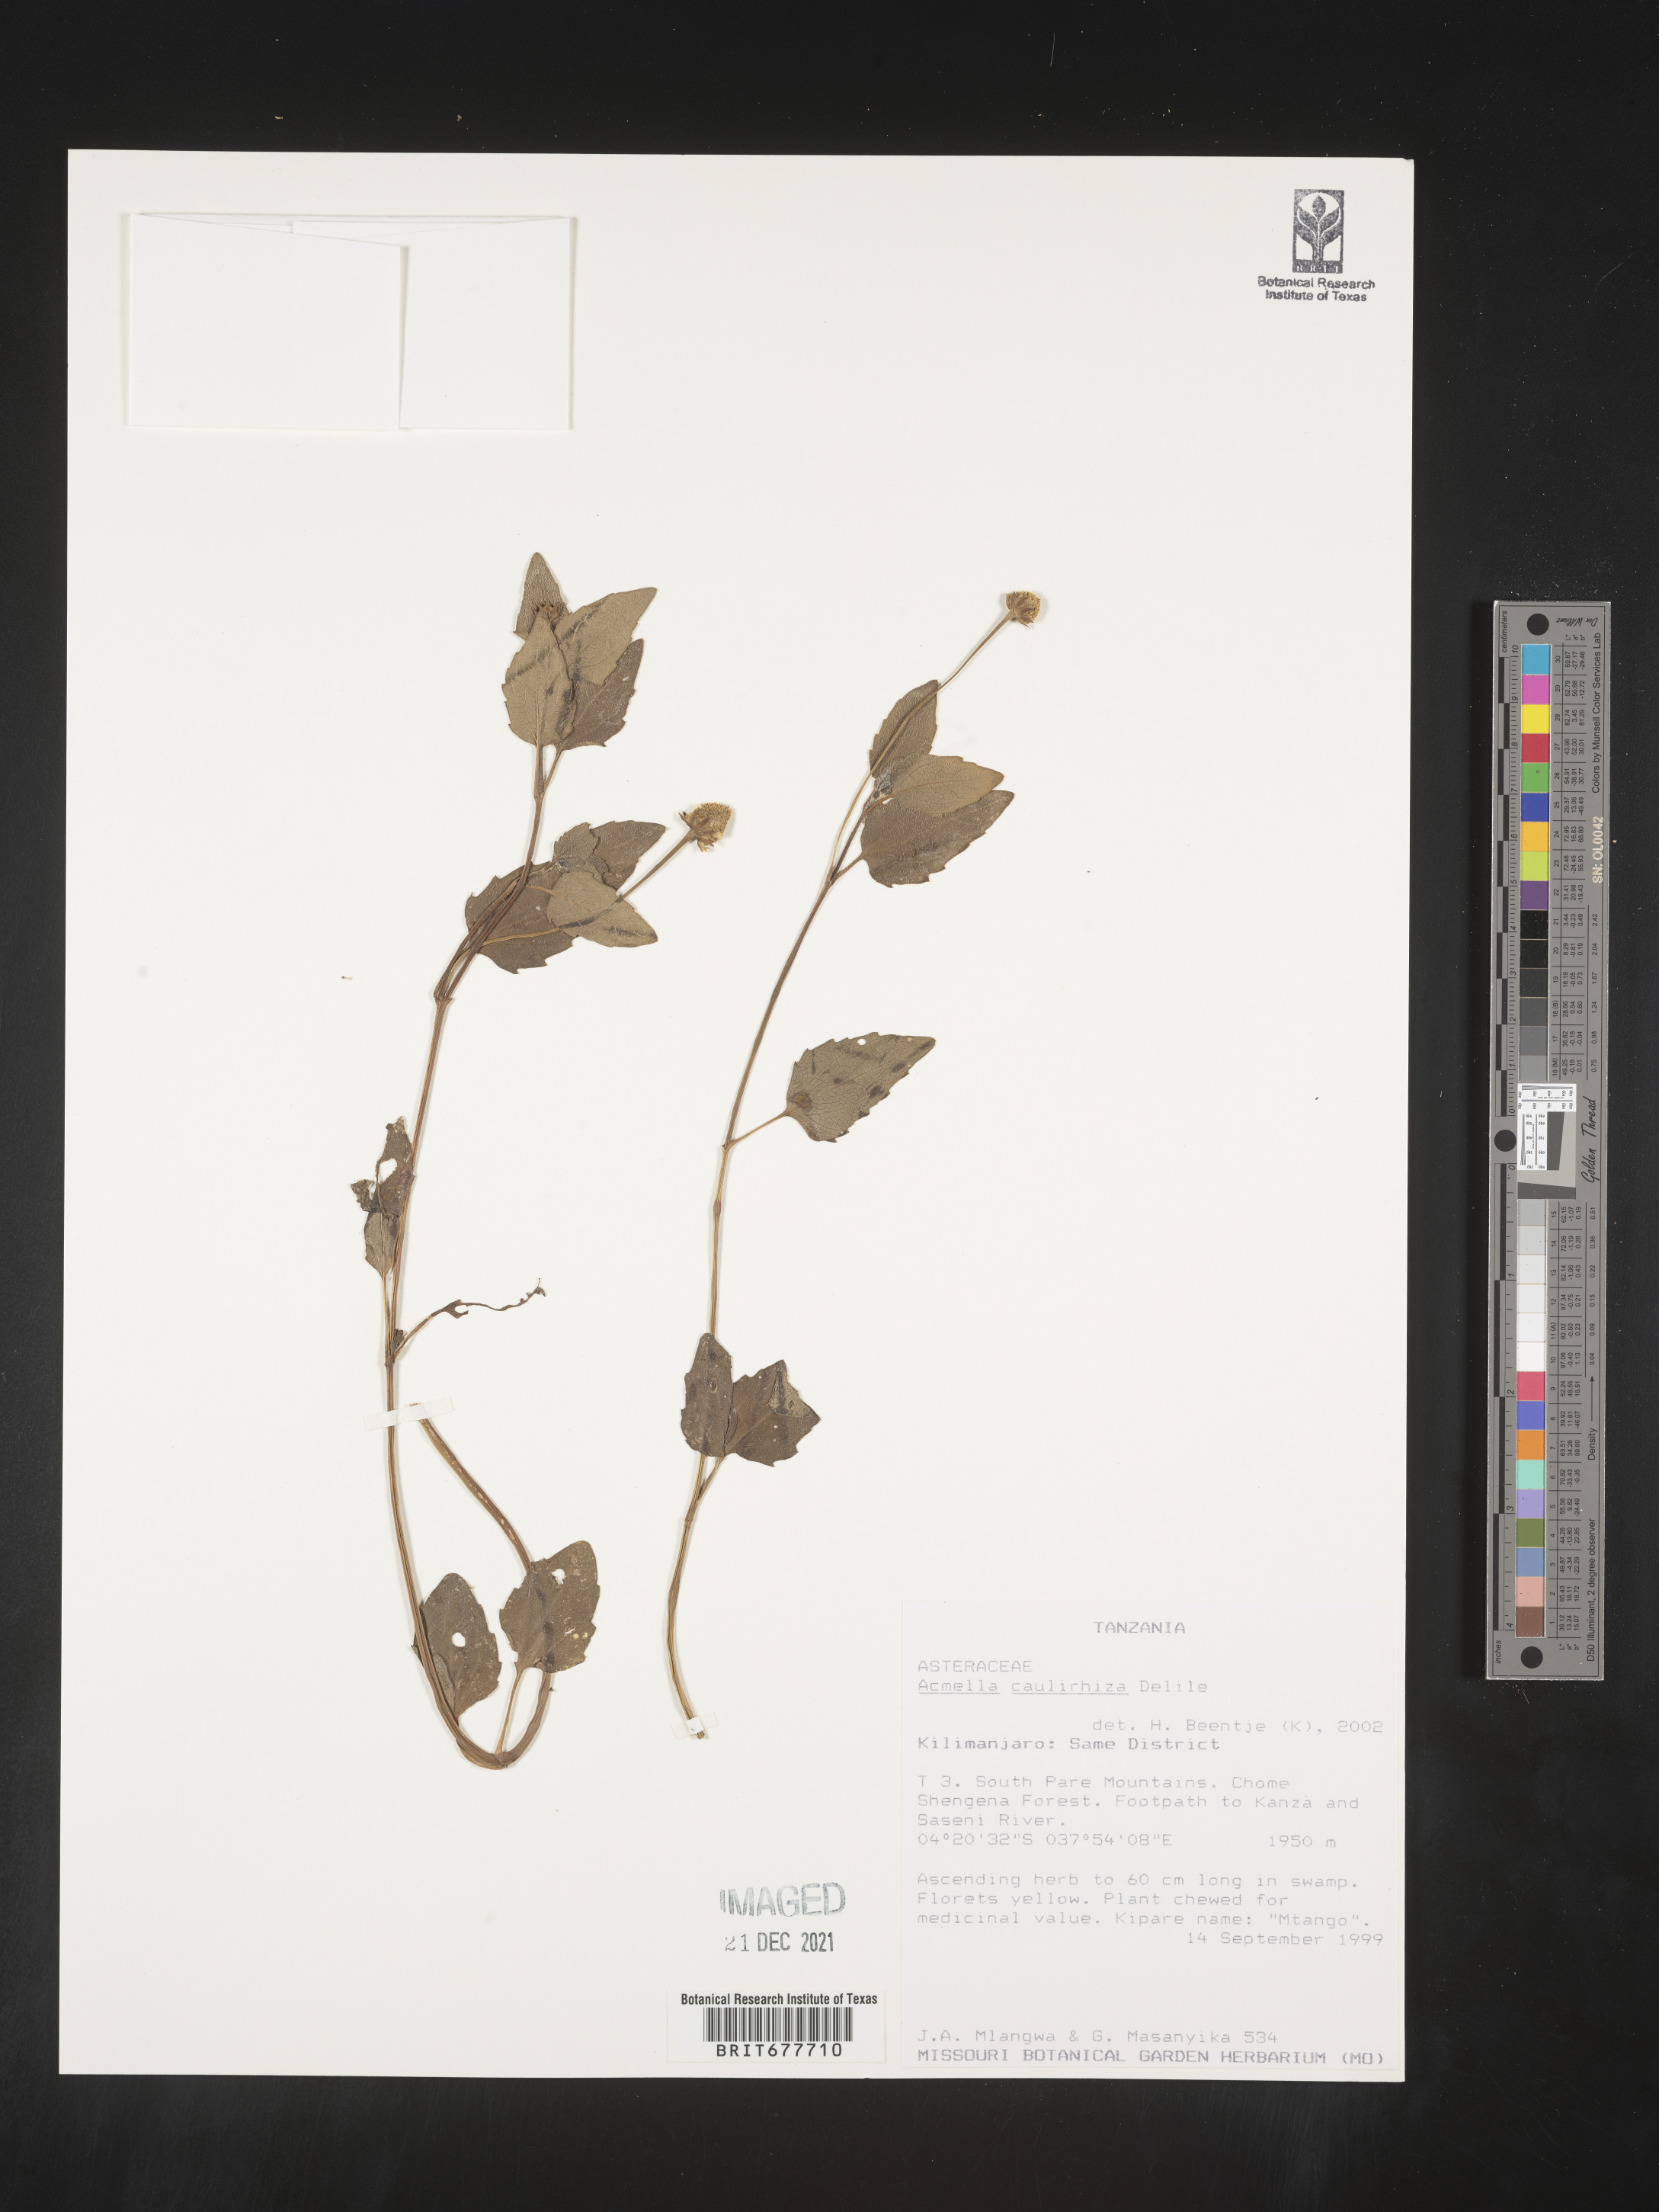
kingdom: Plantae
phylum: Tracheophyta
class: Magnoliopsida
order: Asterales
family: Asteraceae
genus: Acmella
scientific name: Acmella
